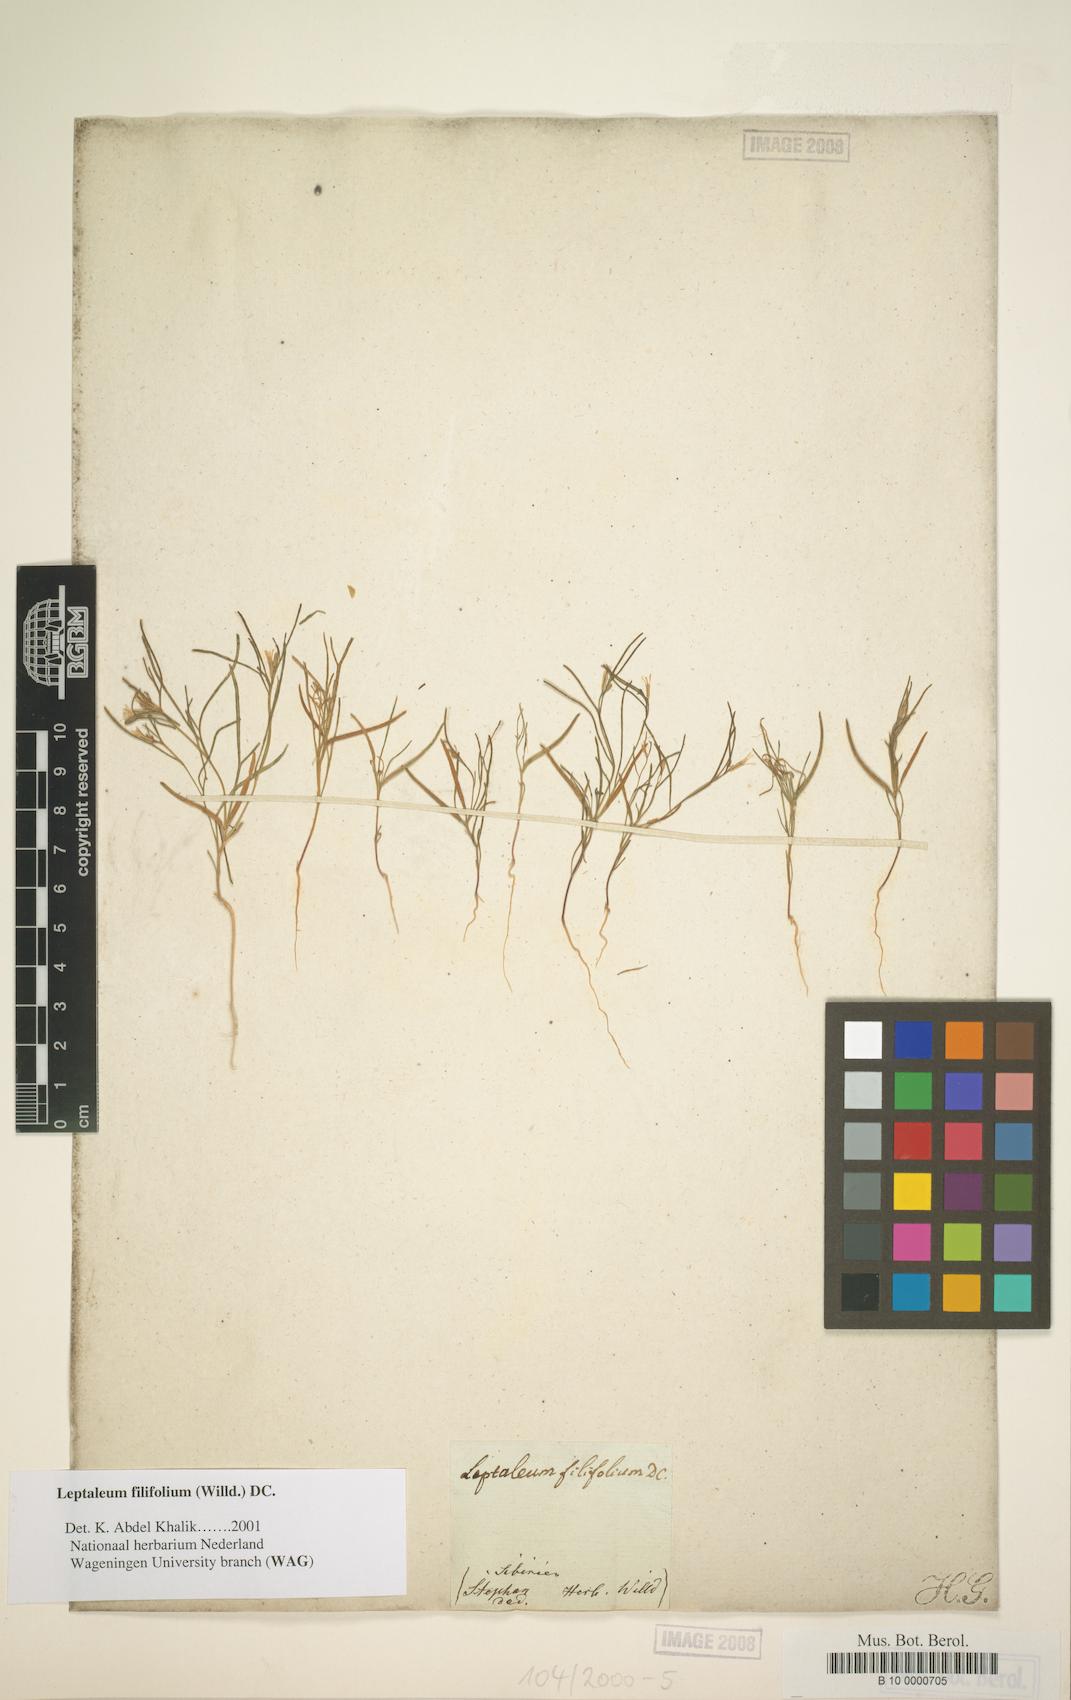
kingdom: Plantae
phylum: Tracheophyta
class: Magnoliopsida
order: Brassicales
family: Brassicaceae
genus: Leptaleum
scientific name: Leptaleum filifolium
